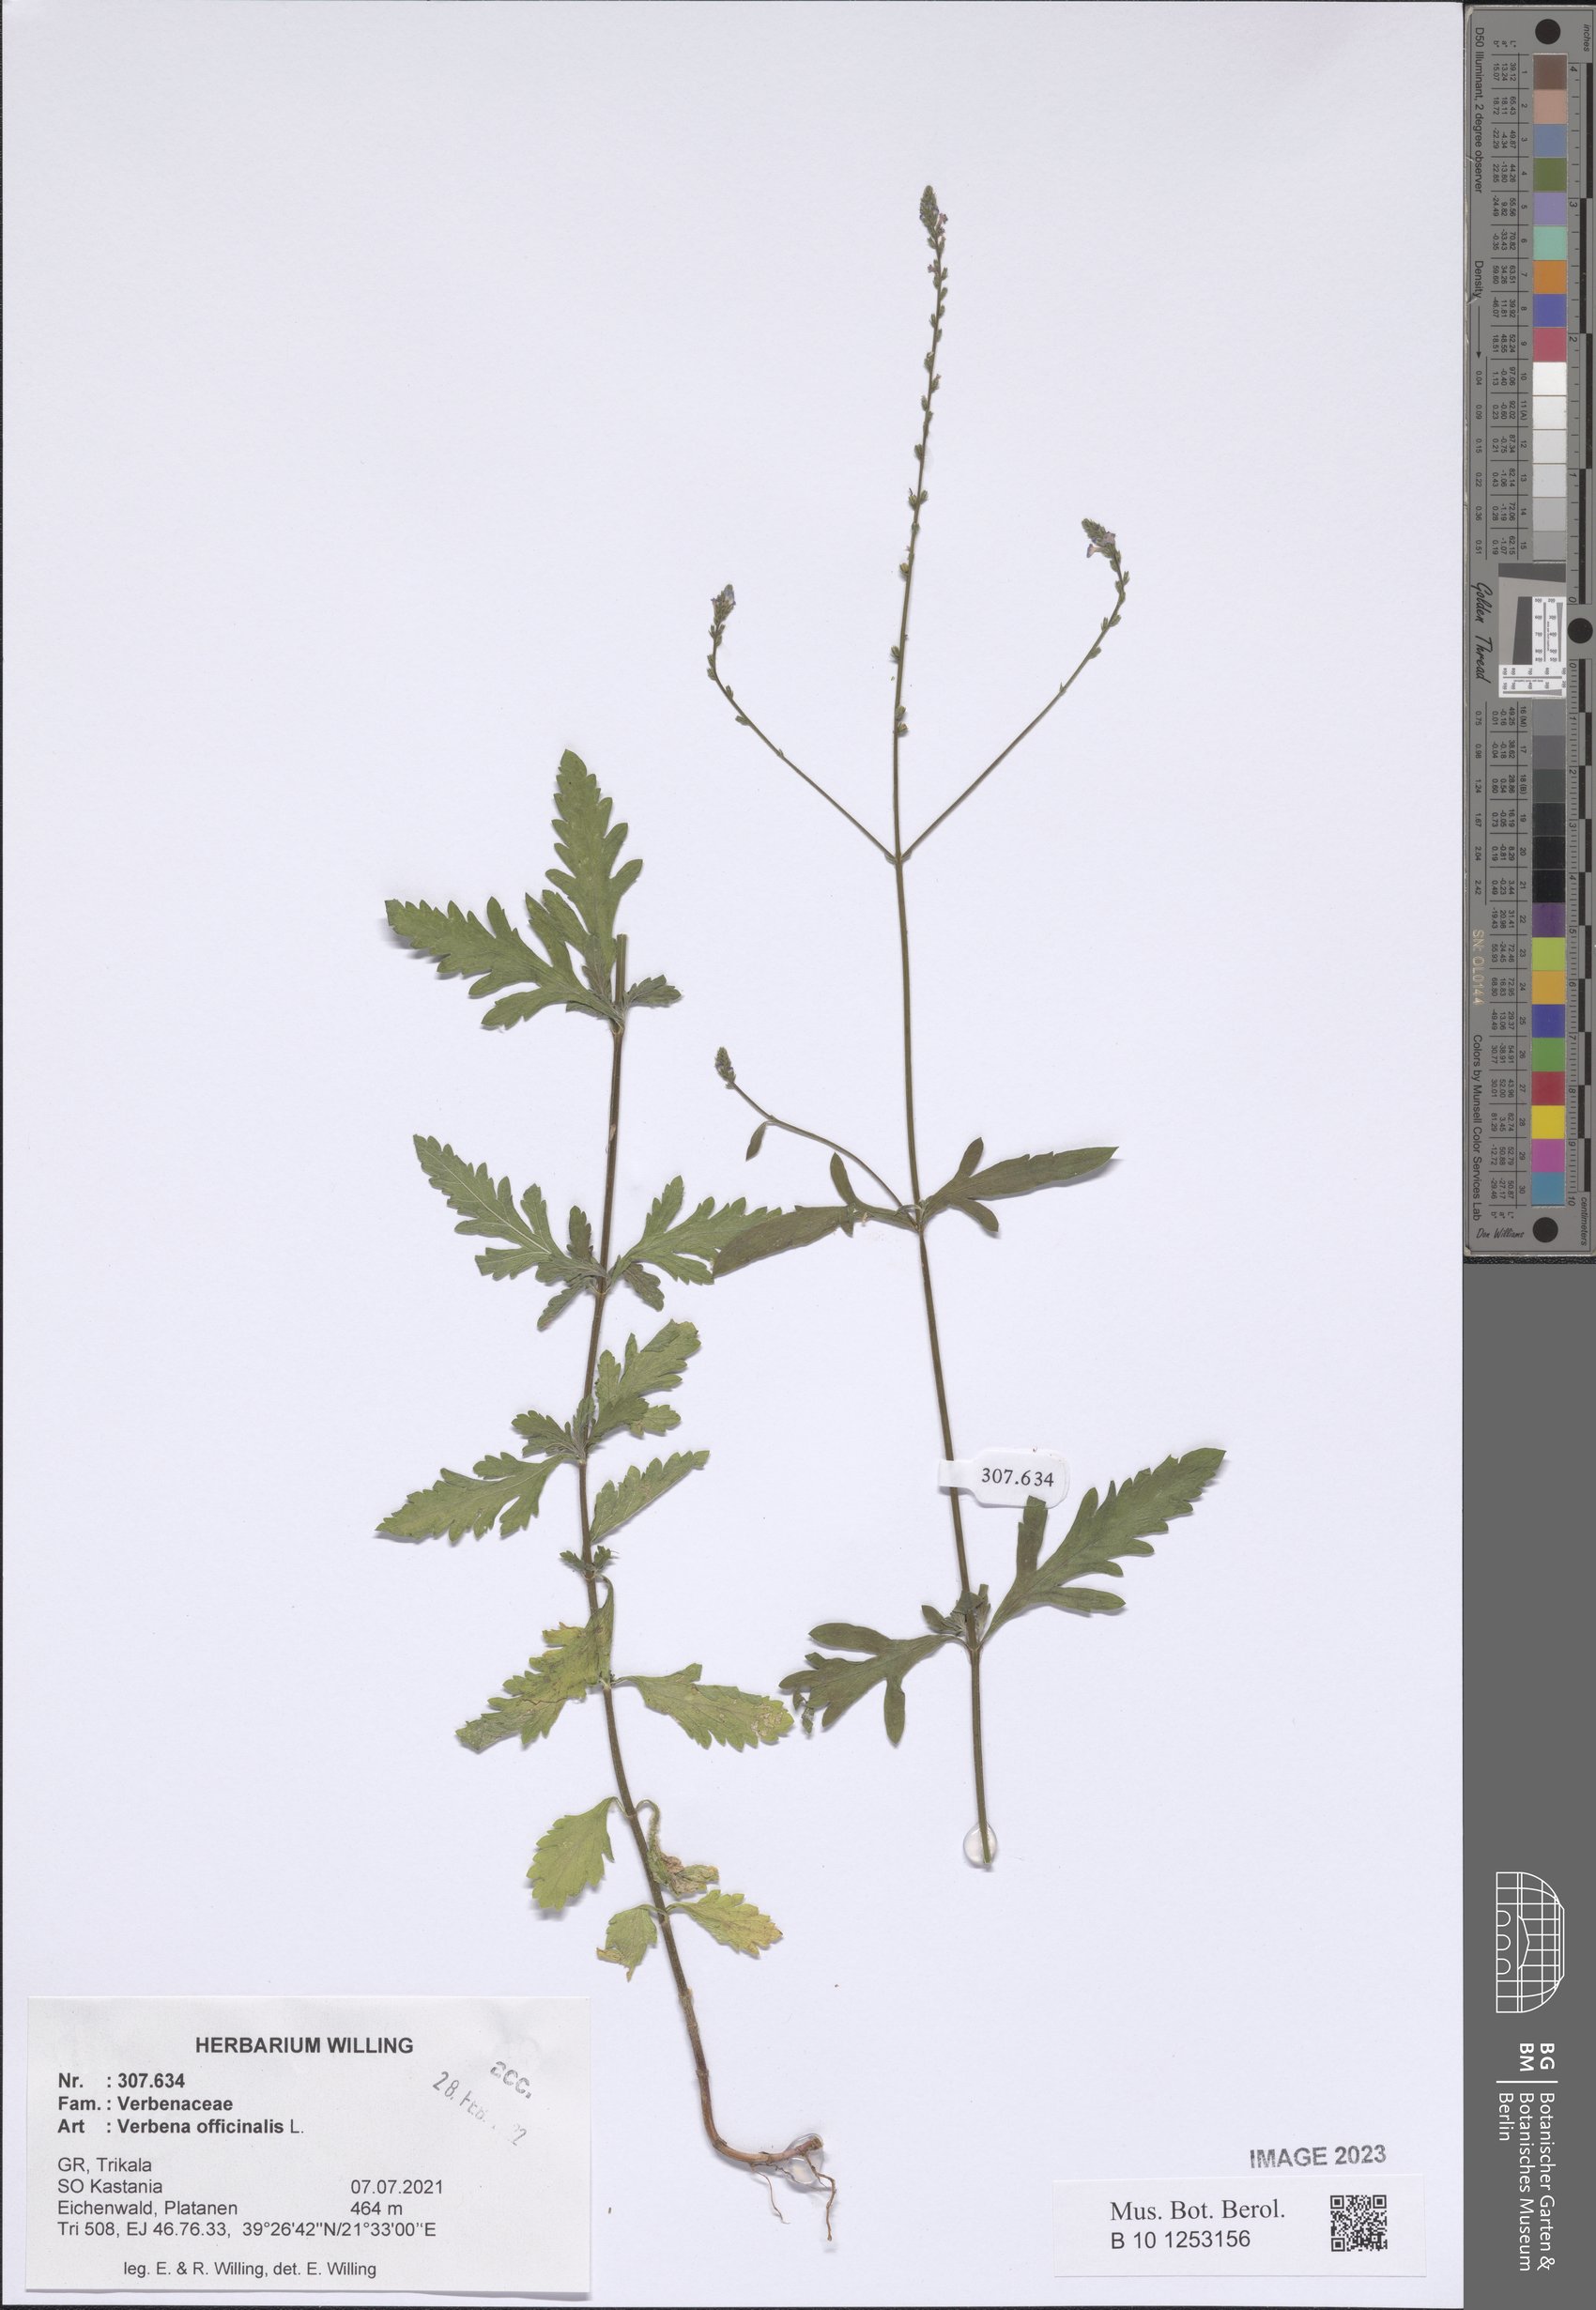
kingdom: Plantae
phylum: Tracheophyta
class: Magnoliopsida
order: Lamiales
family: Verbenaceae
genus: Verbena
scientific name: Verbena officinalis
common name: Vervain
